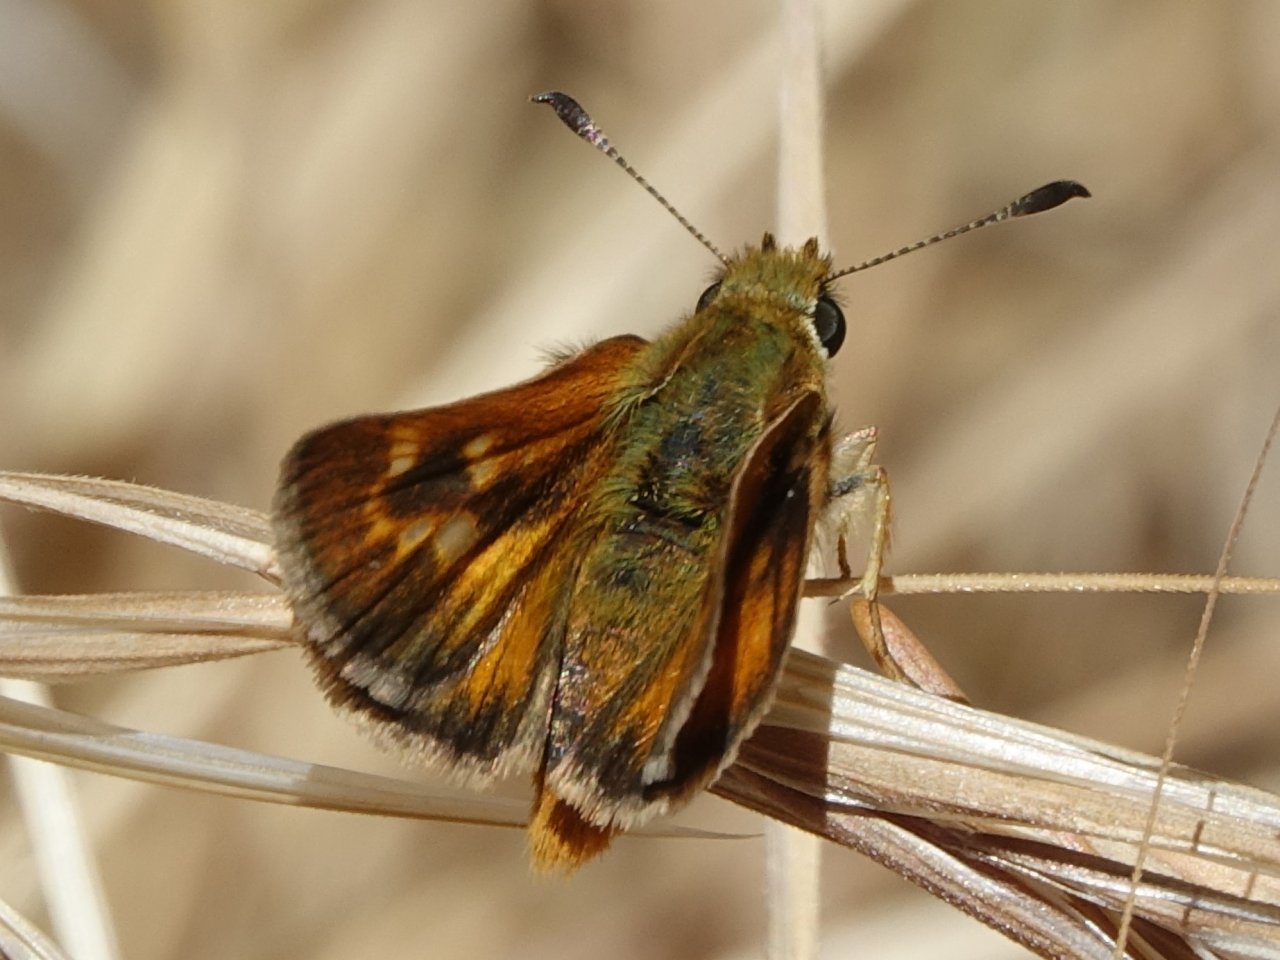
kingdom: Animalia
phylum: Arthropoda
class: Insecta
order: Lepidoptera
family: Hesperiidae
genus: Ochlodes
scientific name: Ochlodes agricola
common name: Rural Skipper
